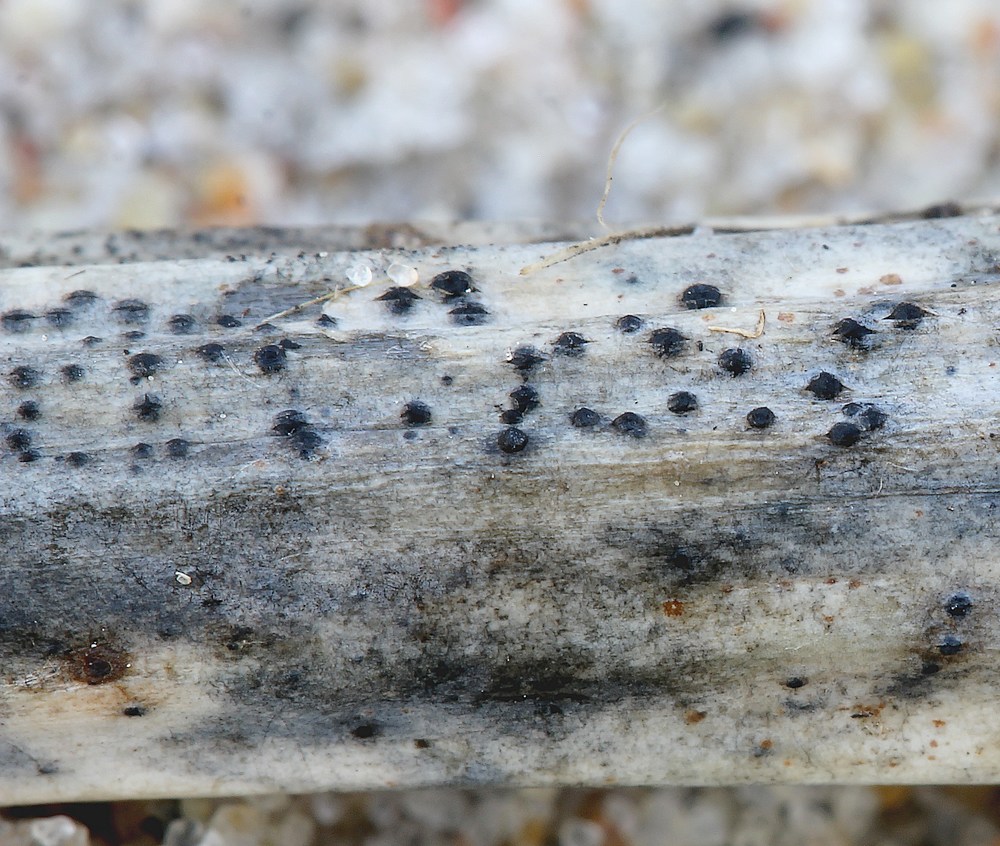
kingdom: Fungi
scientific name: Fungi
